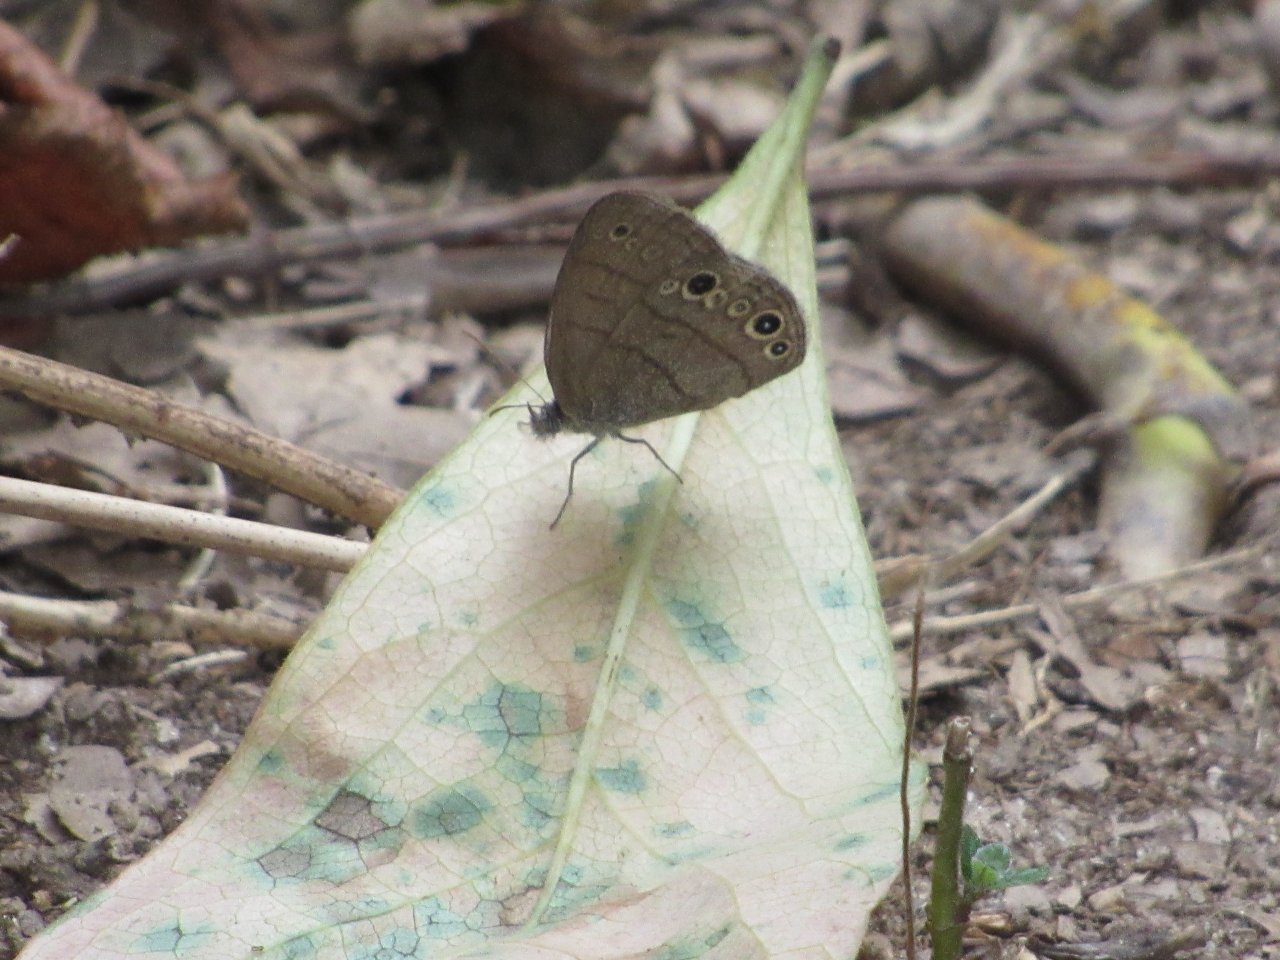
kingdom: Animalia
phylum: Arthropoda
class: Insecta
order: Lepidoptera
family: Nymphalidae
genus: Hermeuptychia
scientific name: Hermeuptychia hermes
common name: Carolina Satyr
